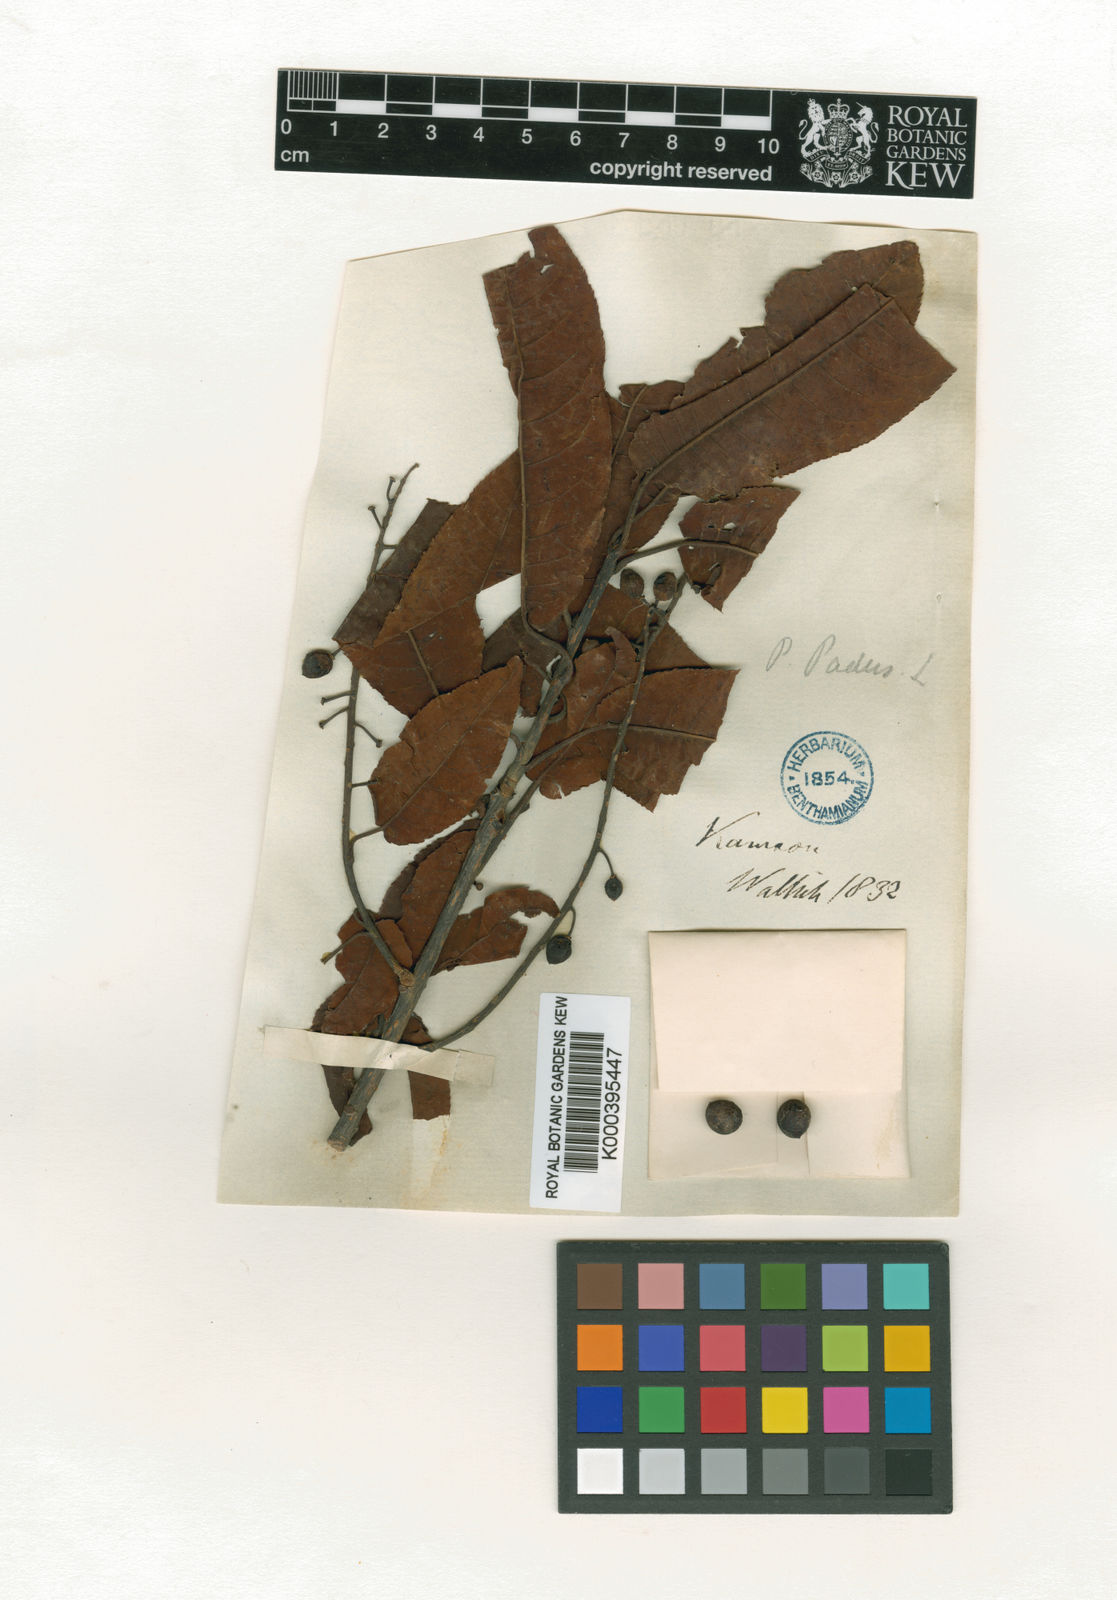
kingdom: Plantae
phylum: Tracheophyta
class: Magnoliopsida
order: Rosales
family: Rosaceae
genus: Prunus
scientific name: Prunus
